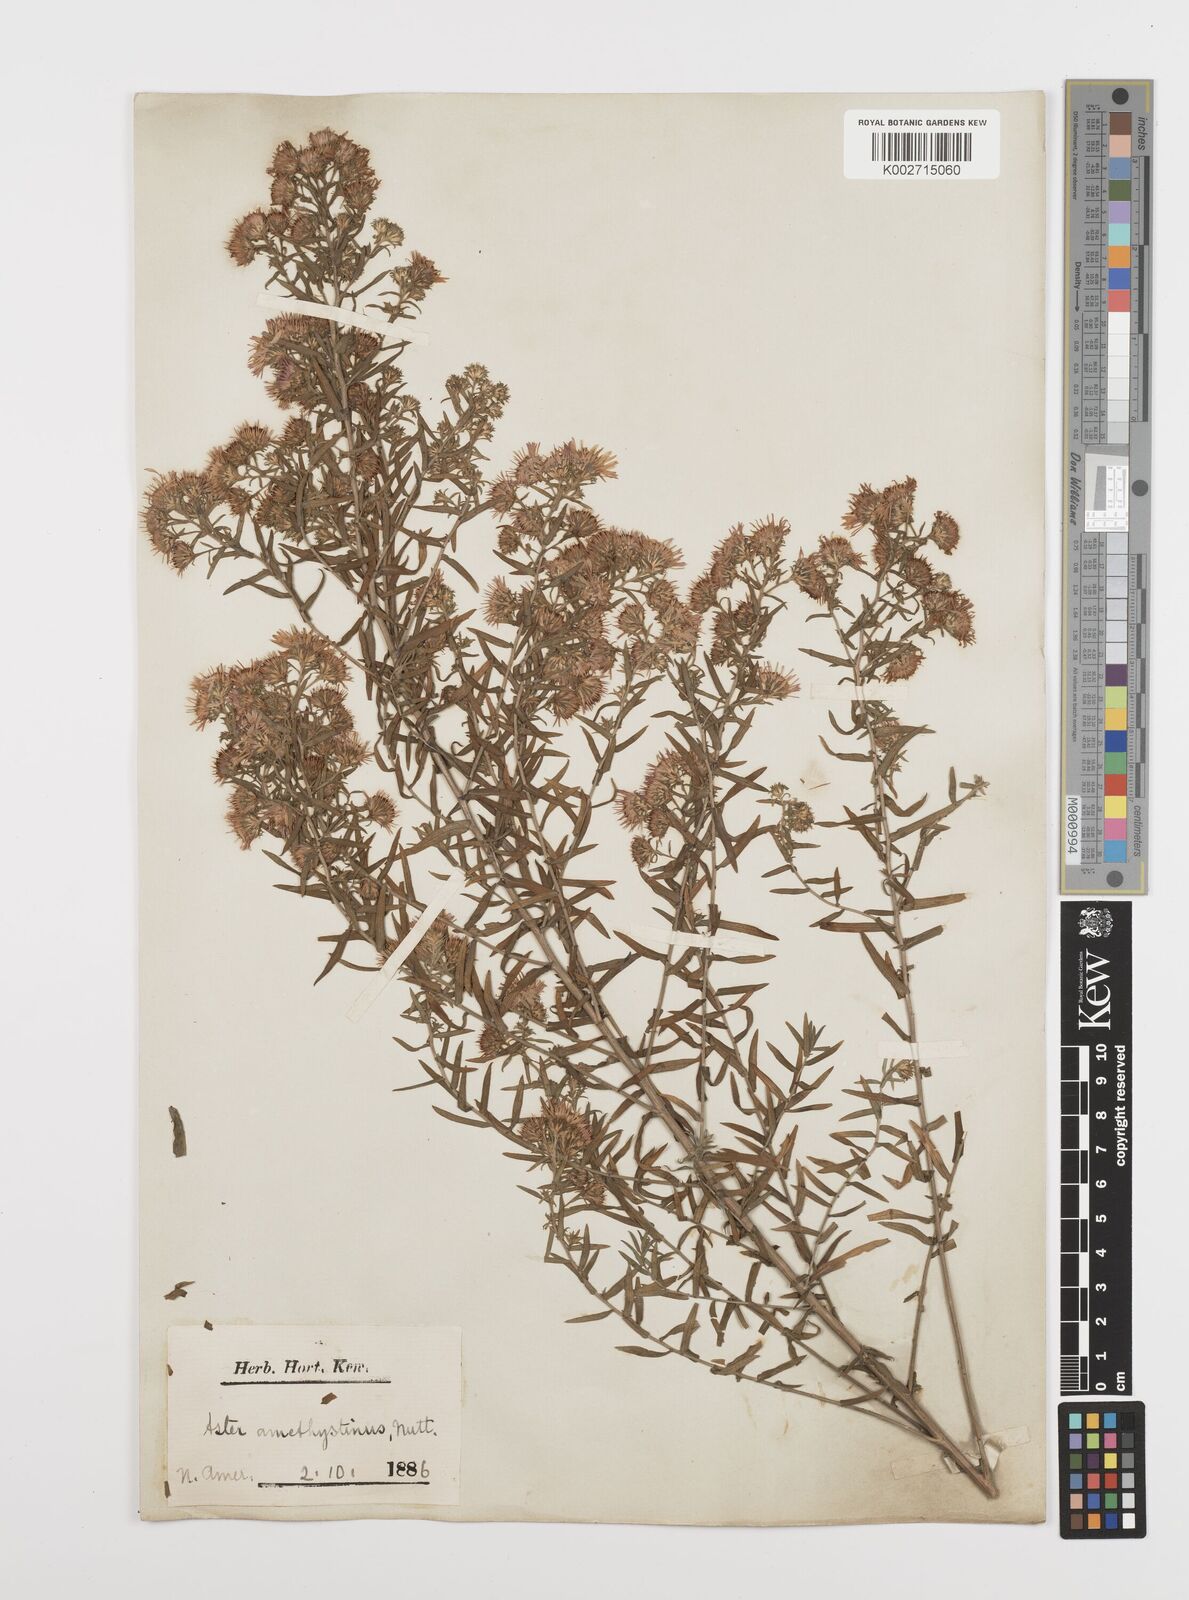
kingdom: Plantae
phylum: Tracheophyta
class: Magnoliopsida
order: Asterales
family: Asteraceae
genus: Symphyotrichum
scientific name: Symphyotrichum amethystinum
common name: Amethyst aster
